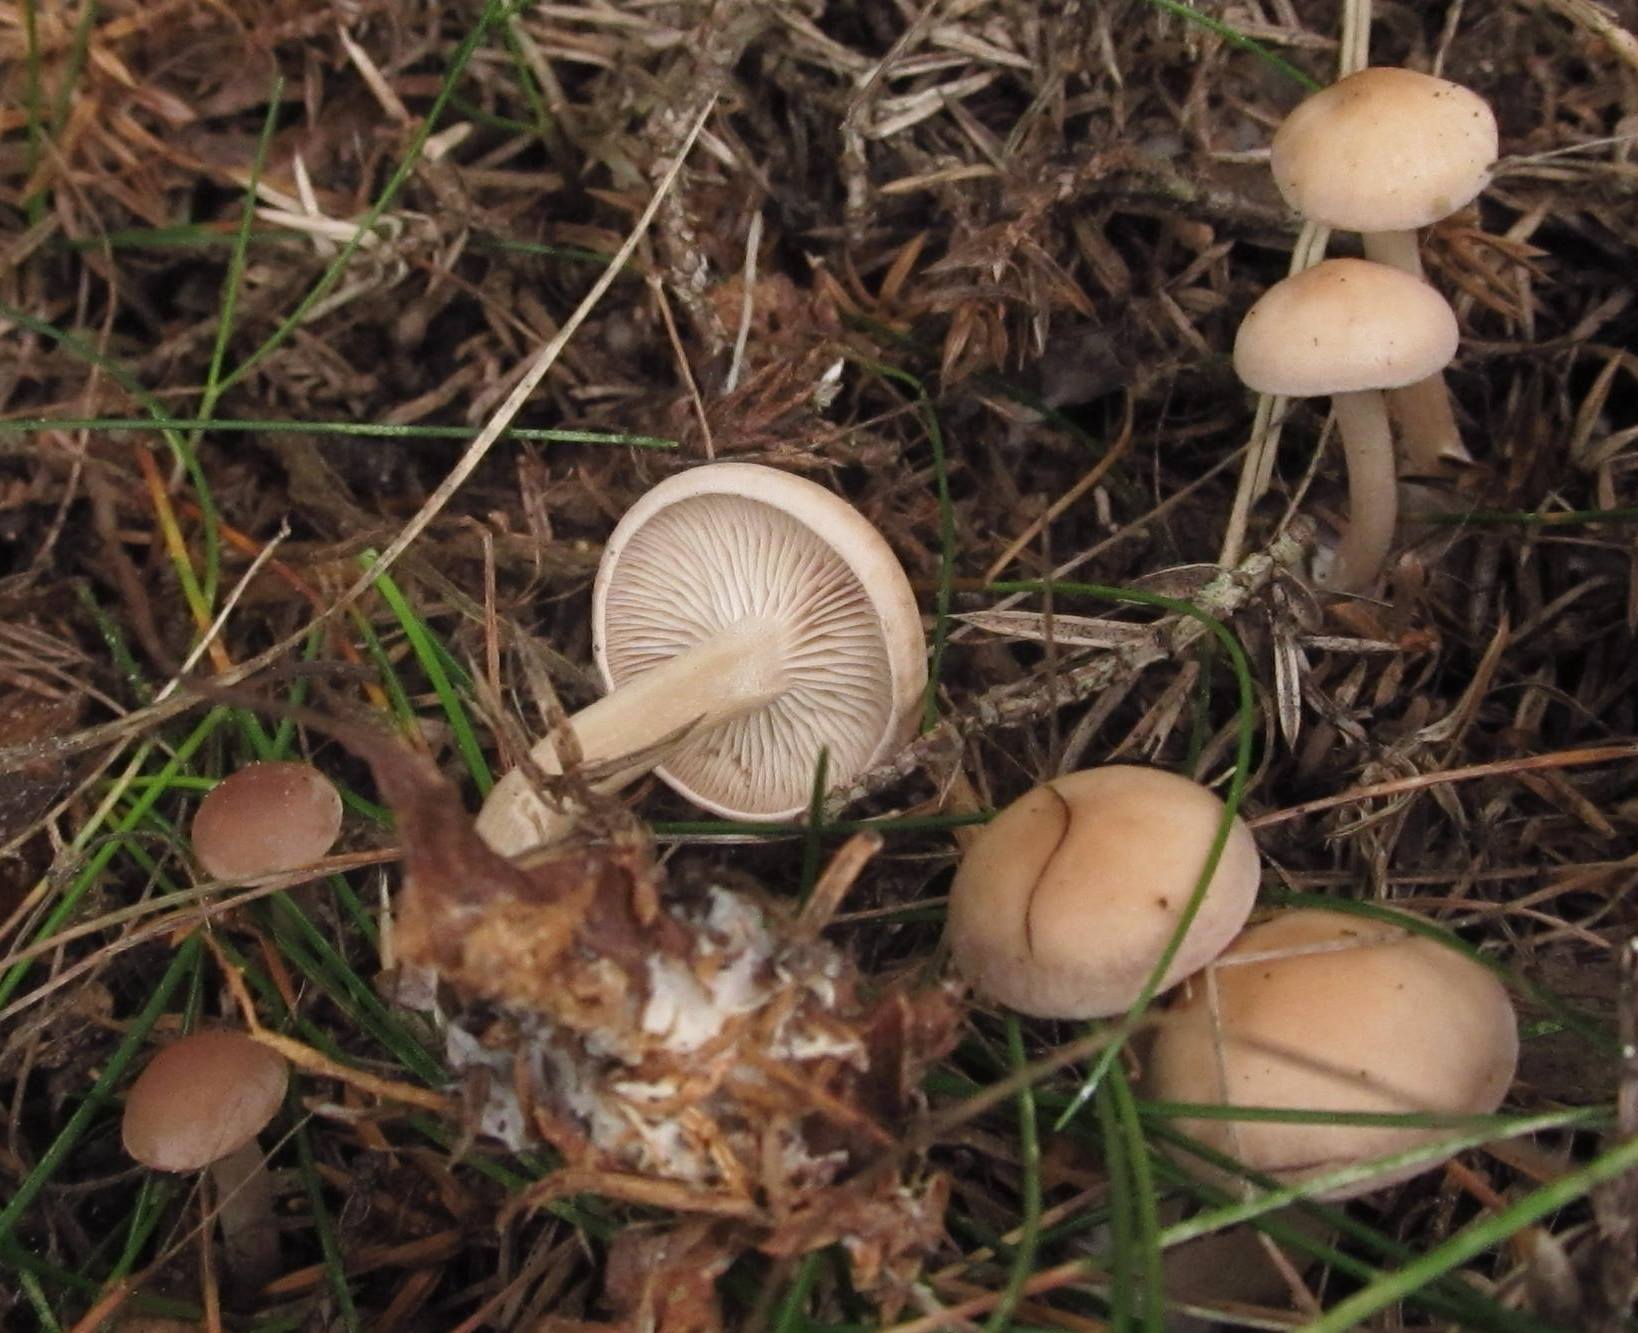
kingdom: Fungi
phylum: Basidiomycota
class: Agaricomycetes
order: Agaricales
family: Tricholomataceae
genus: Clitocybe
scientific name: Clitocybe diatreta
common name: kødfarvet tragthat
